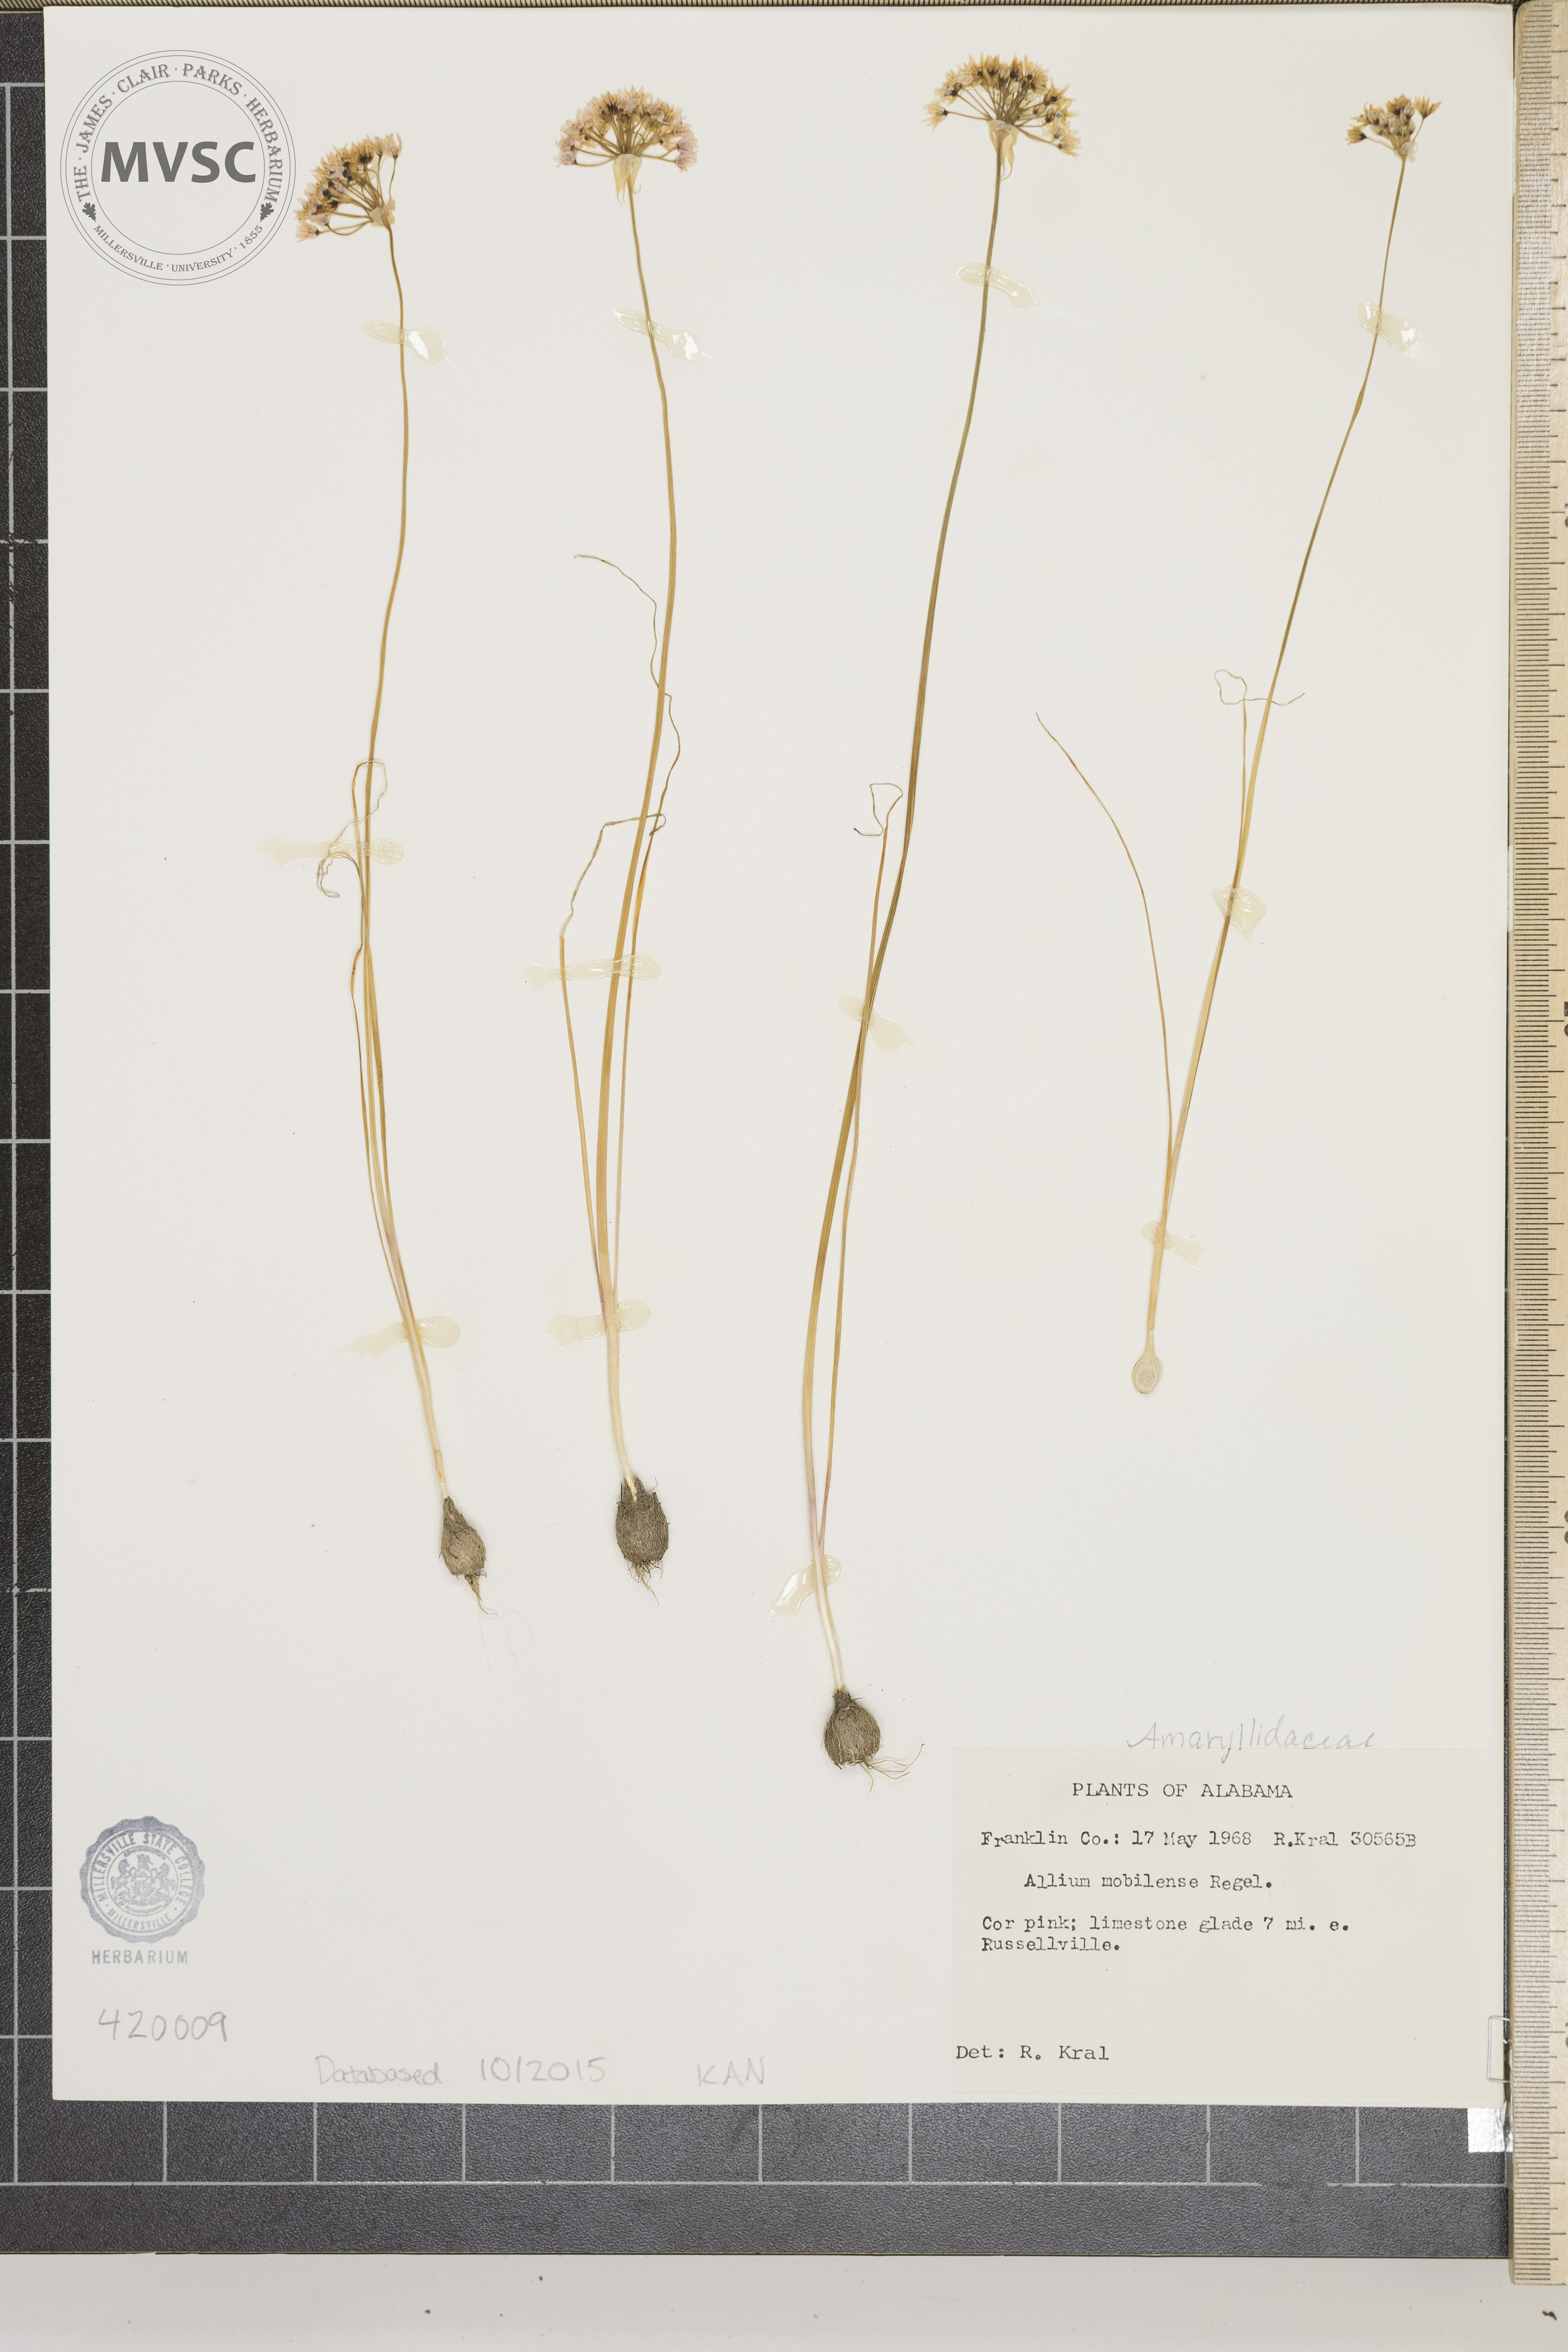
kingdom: Plantae
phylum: Tracheophyta
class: Liliopsida
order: Asparagales
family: Amaryllidaceae
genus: Allium
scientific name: Allium canadense
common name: Meadow garlic
